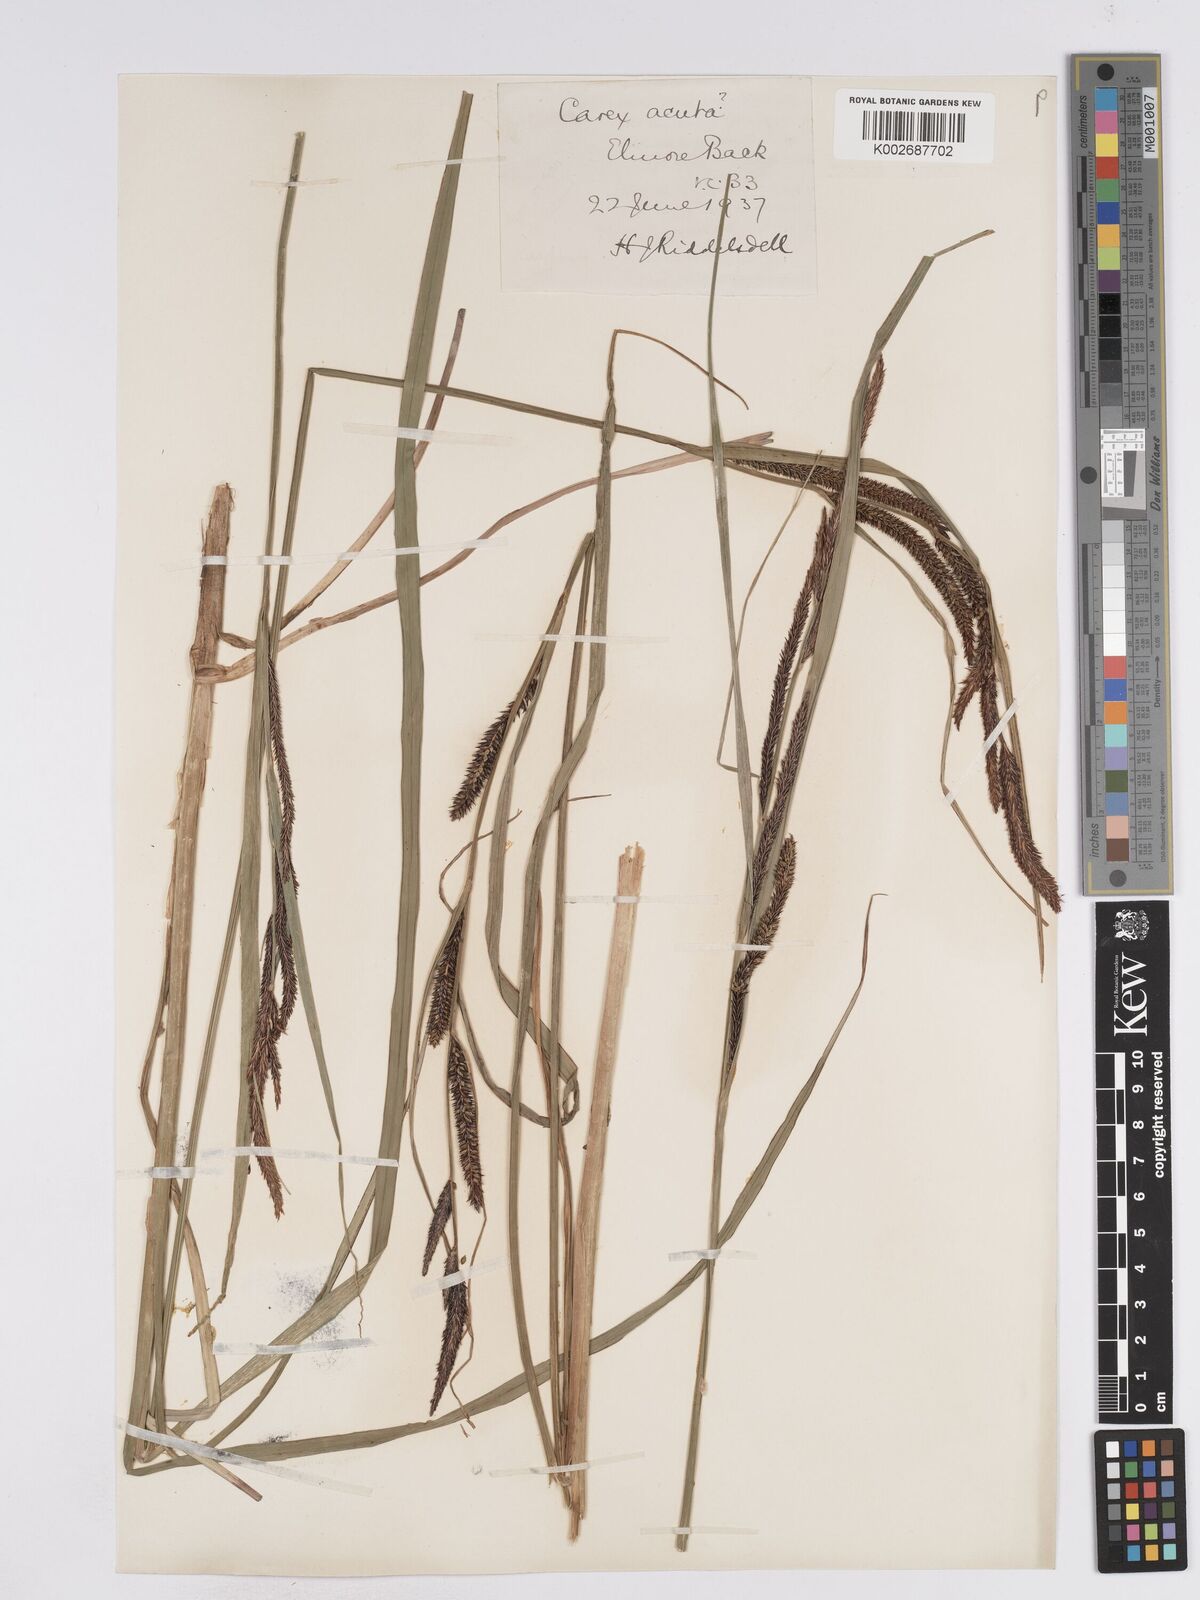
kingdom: Plantae
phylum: Tracheophyta
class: Liliopsida
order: Poales
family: Cyperaceae
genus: Carex
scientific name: Carex acuta
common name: Slender tufted-sedge
